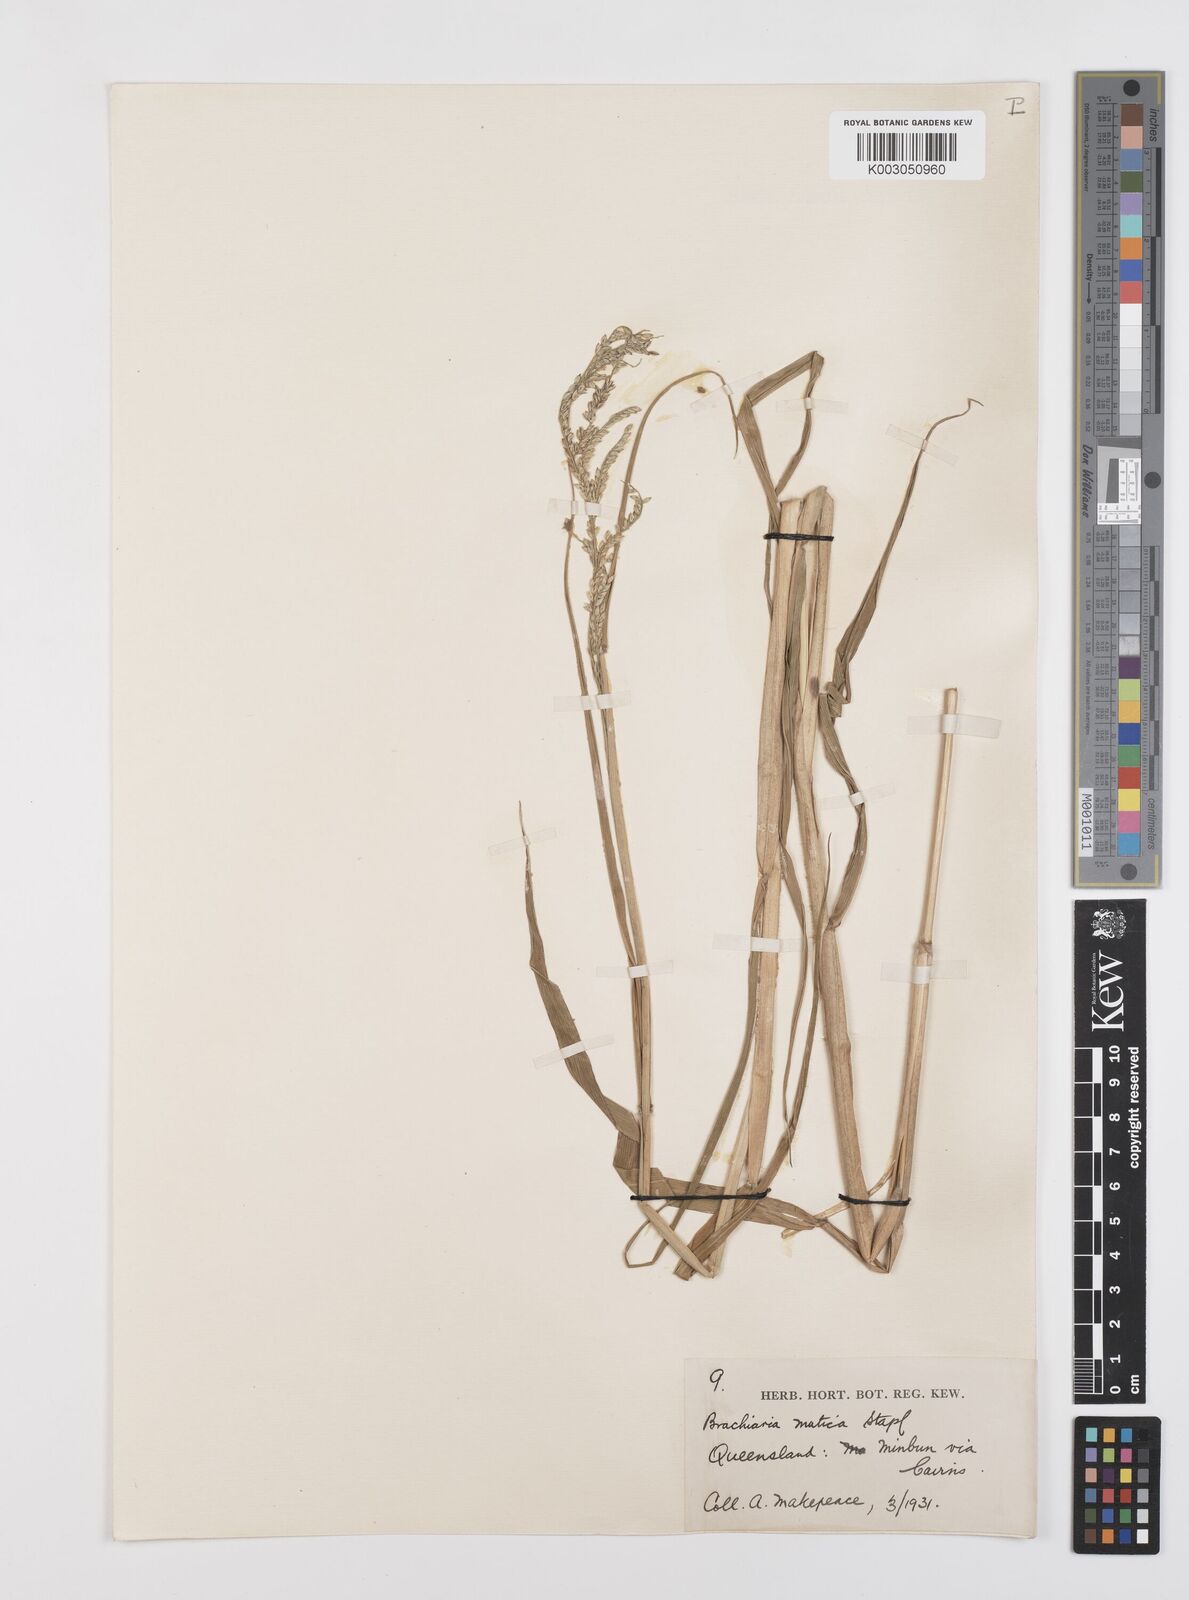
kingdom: Plantae
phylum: Tracheophyta
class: Liliopsida
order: Poales
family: Poaceae
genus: Urochloa
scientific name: Urochloa mutica
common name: Para grass
